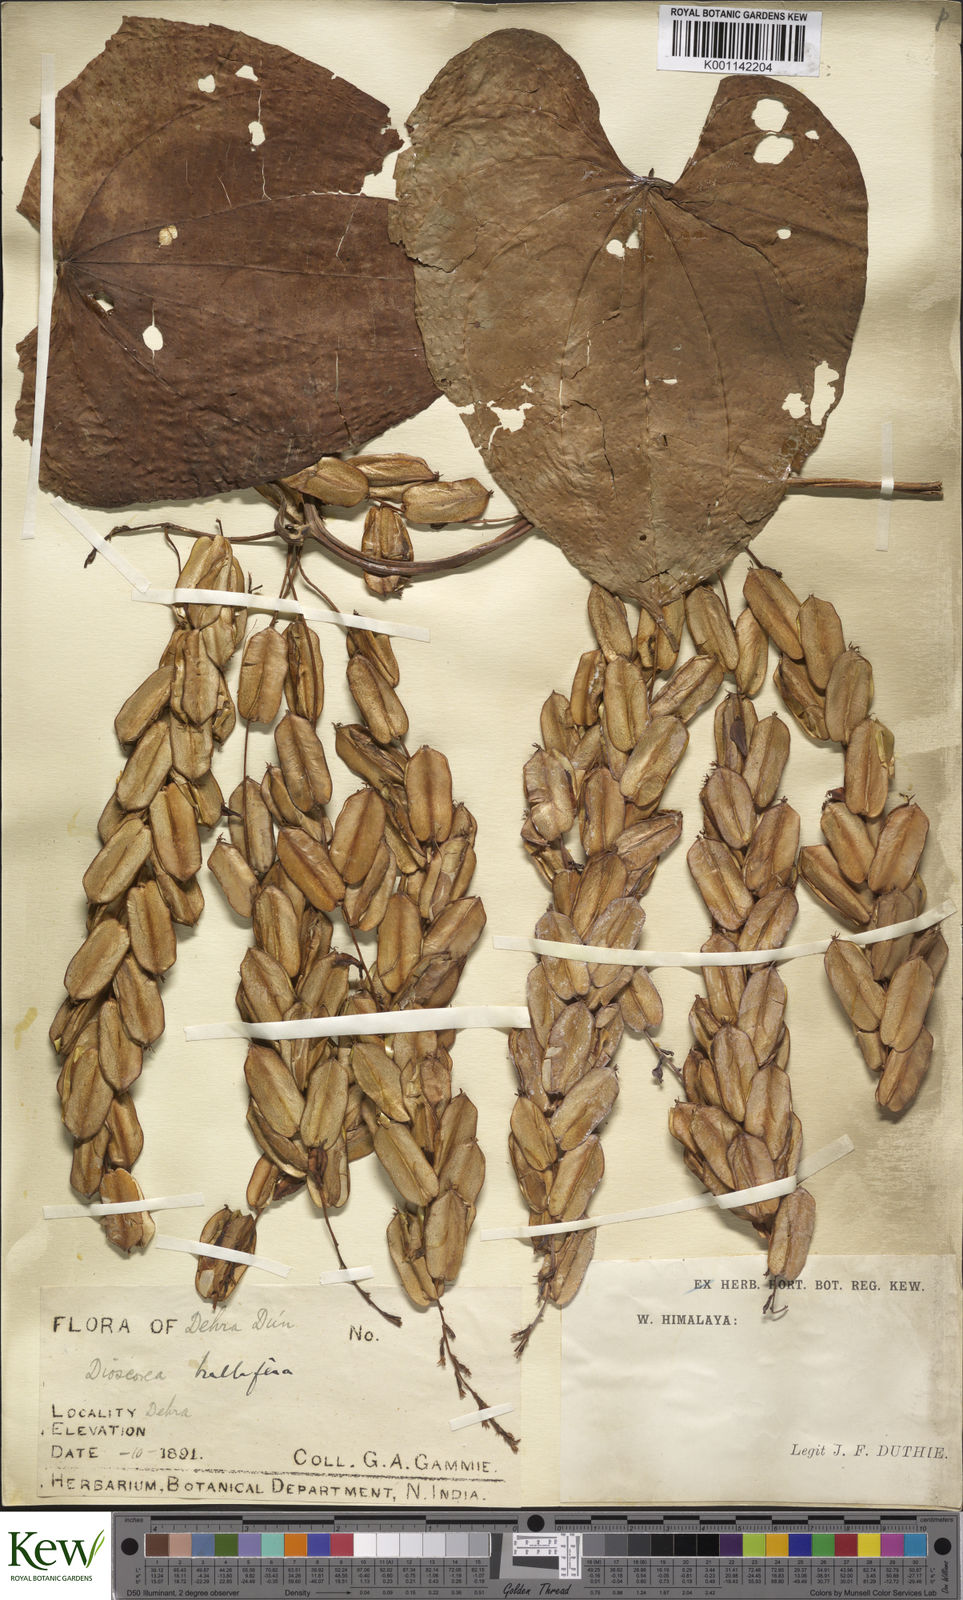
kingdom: Plantae
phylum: Tracheophyta
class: Liliopsida
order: Dioscoreales
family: Dioscoreaceae
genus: Dioscorea
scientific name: Dioscorea bulbifera
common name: Air yam
